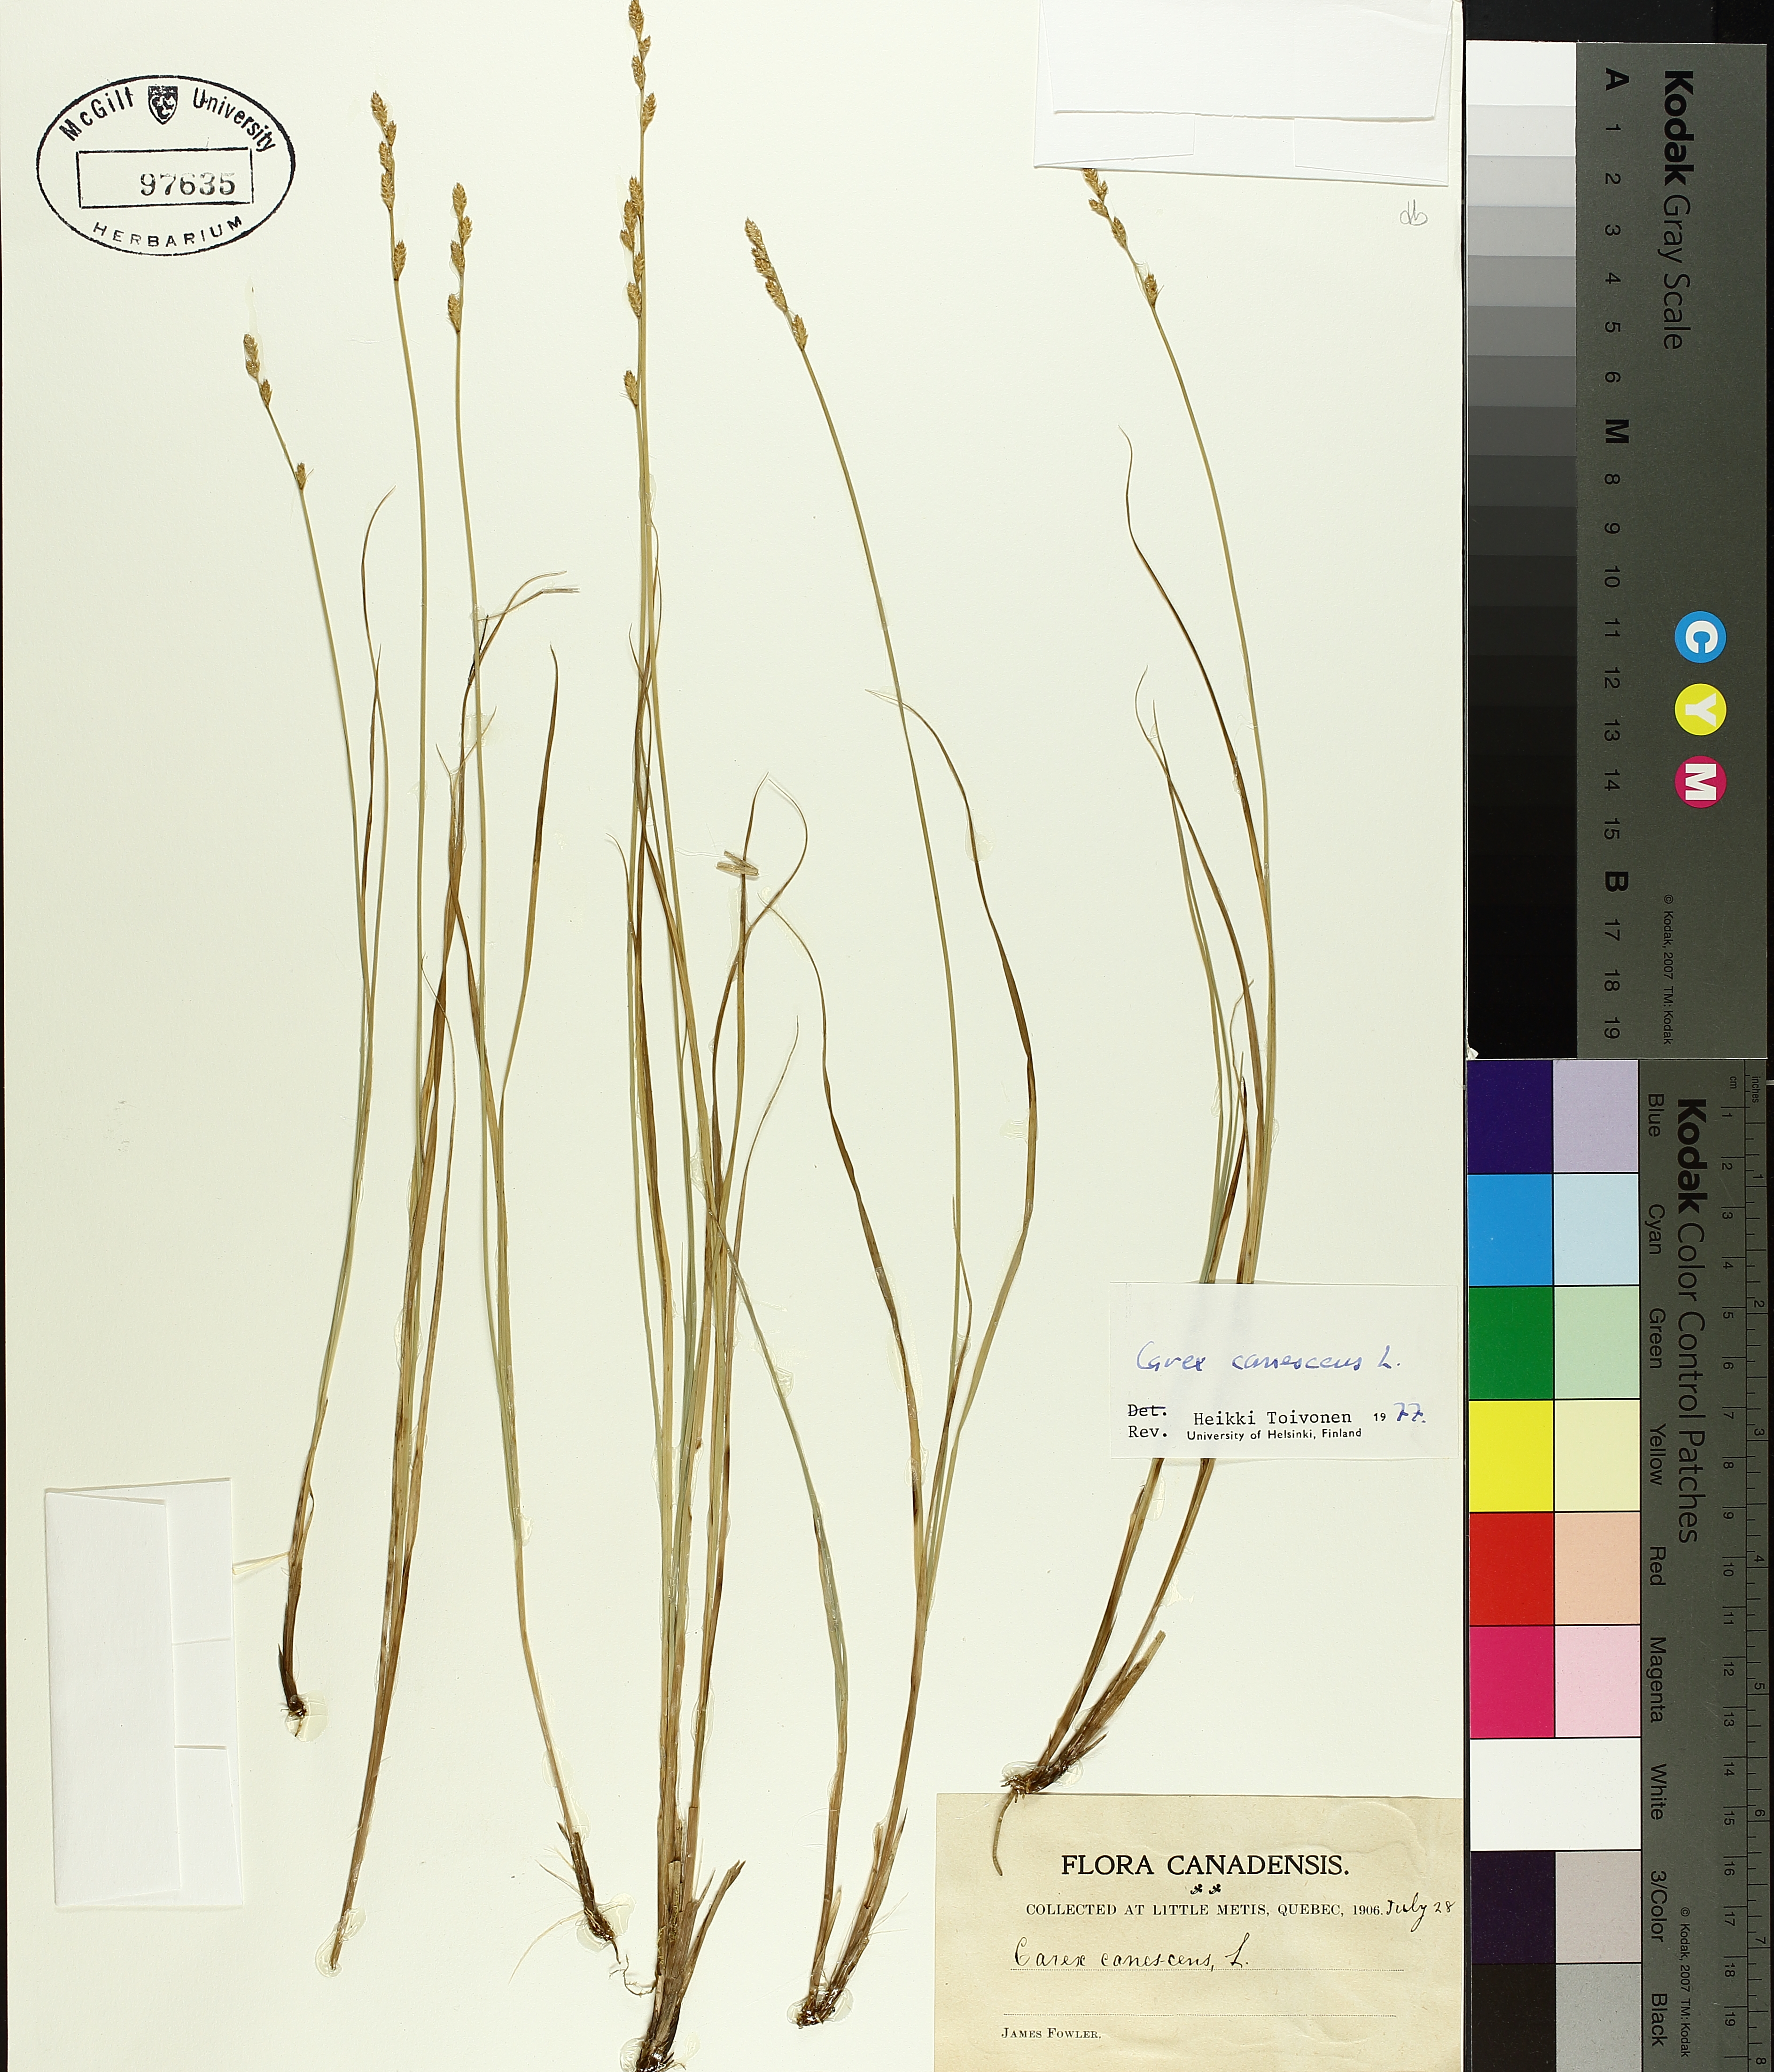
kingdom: Plantae
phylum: Tracheophyta
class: Liliopsida
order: Poales
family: Cyperaceae
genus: Carex
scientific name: Carex canescens
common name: White sedge
